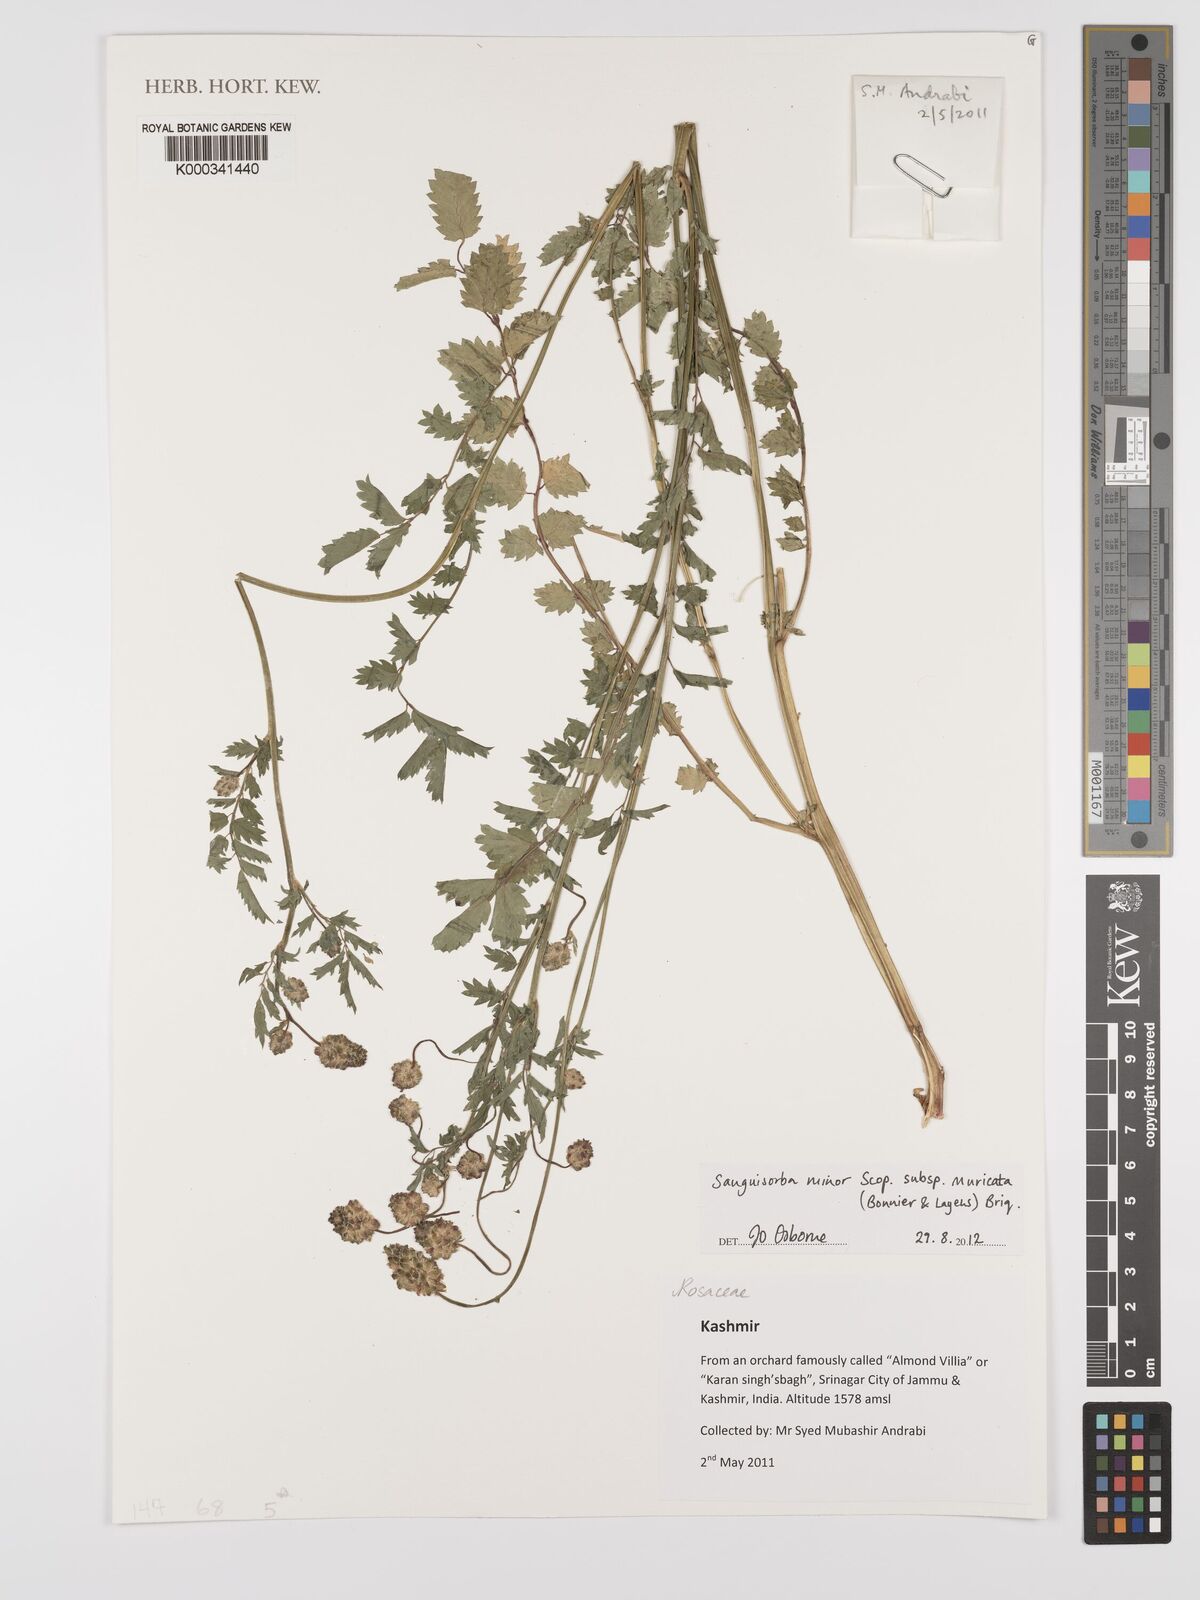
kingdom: Plantae
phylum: Tracheophyta
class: Magnoliopsida
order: Rosales
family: Rosaceae
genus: Poterium
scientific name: Poterium sanguisorba
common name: Salad burnet
